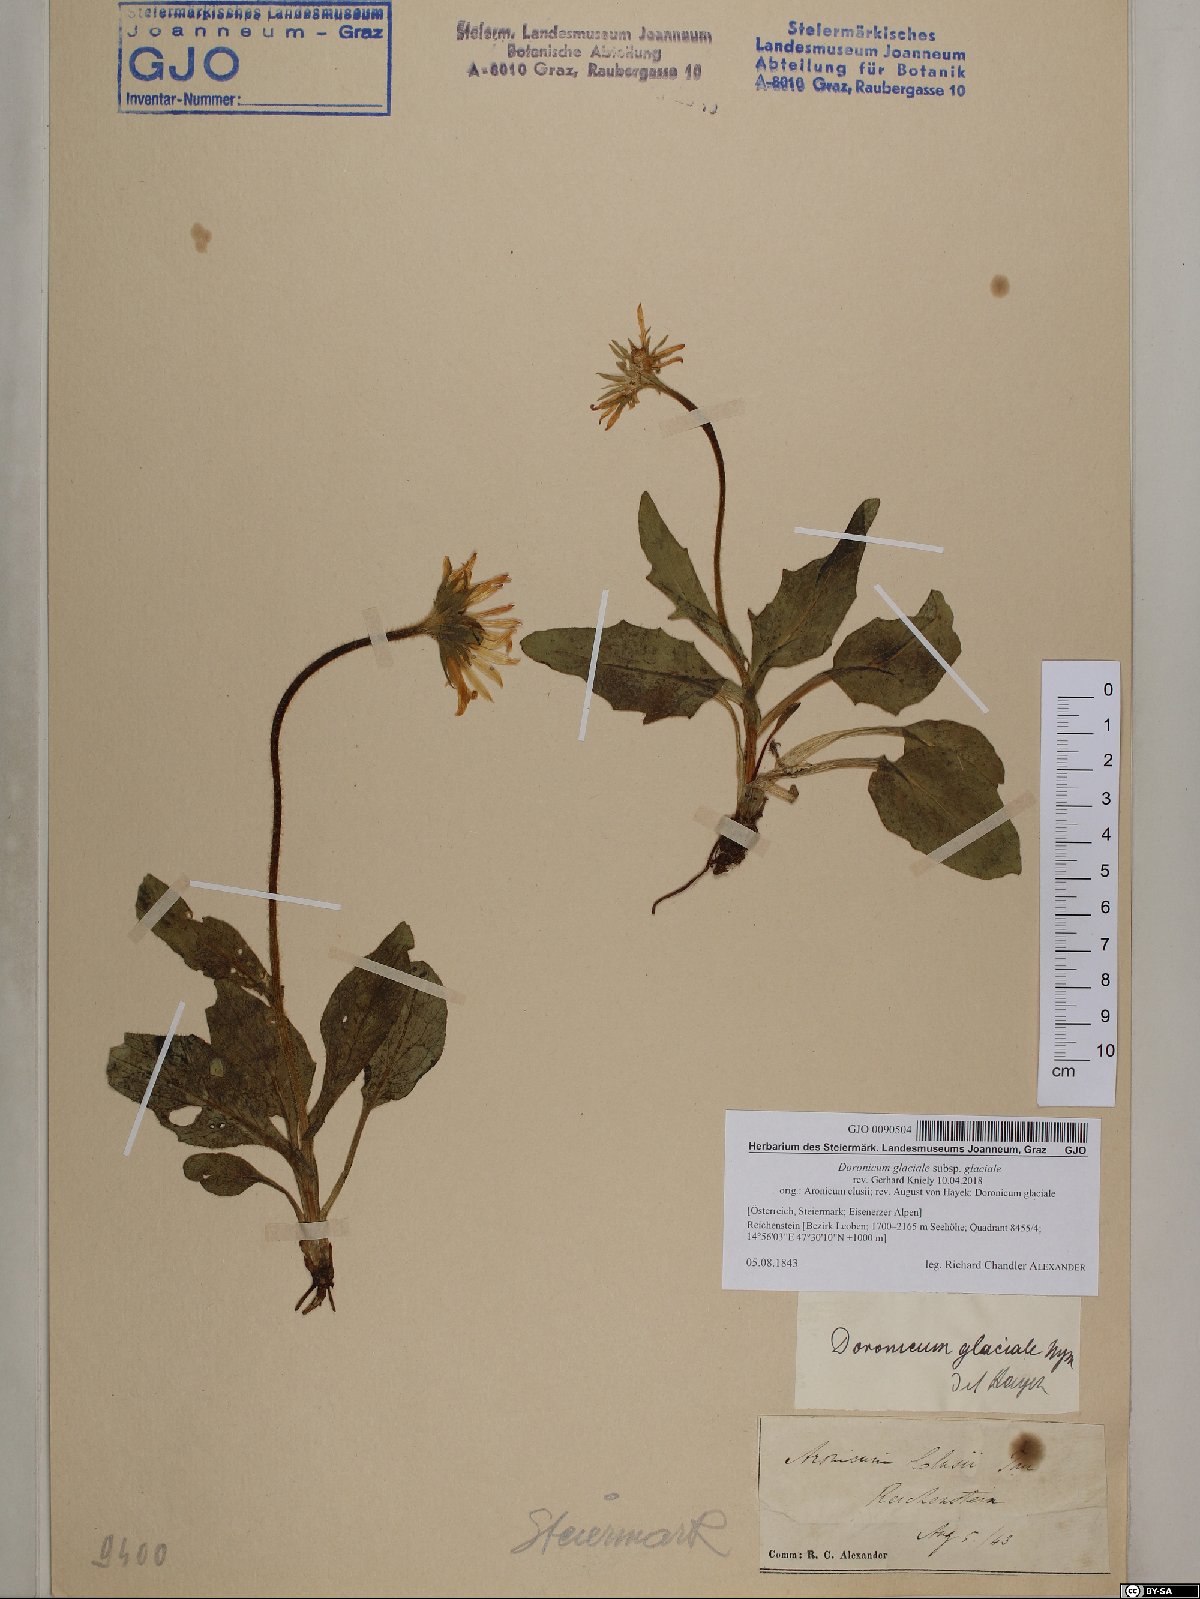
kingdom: Plantae
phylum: Tracheophyta
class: Magnoliopsida
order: Asterales
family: Asteraceae
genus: Doronicum
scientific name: Doronicum glaciale
